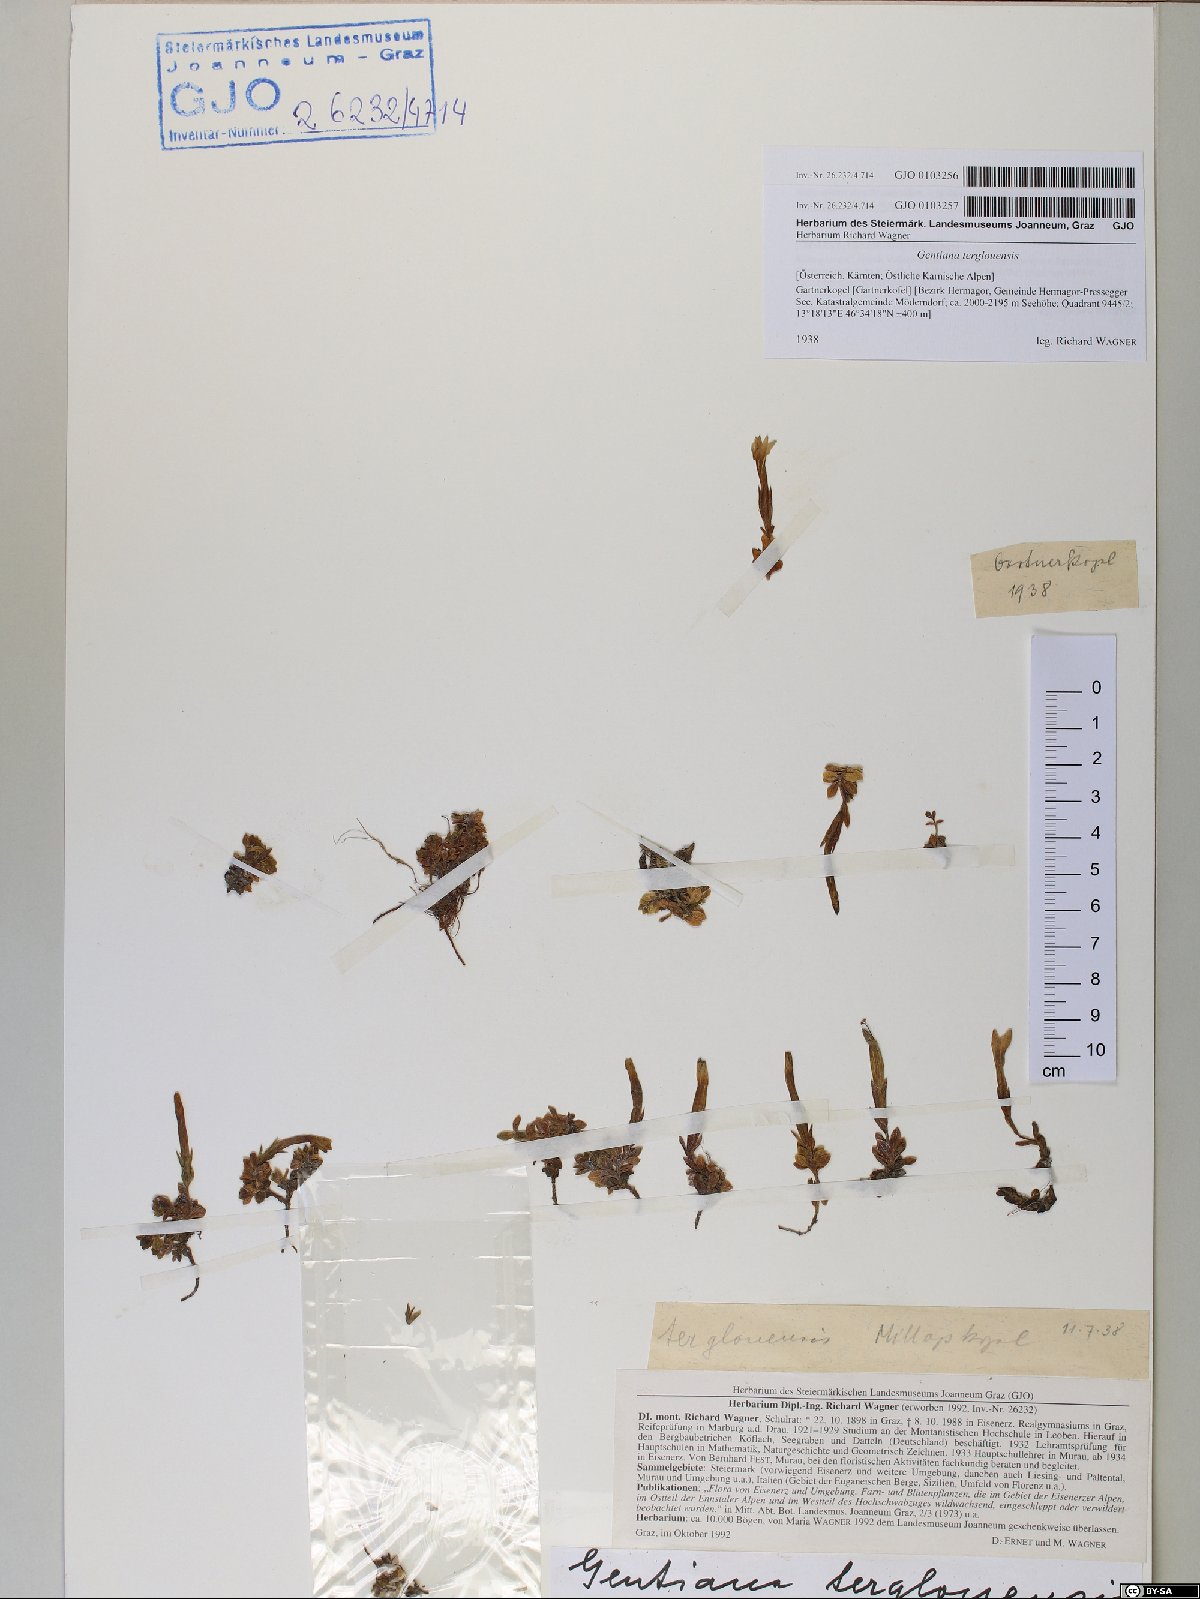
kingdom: Plantae
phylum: Tracheophyta
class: Magnoliopsida
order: Gentianales
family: Gentianaceae
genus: Gentiana
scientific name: Gentiana terglouensis
